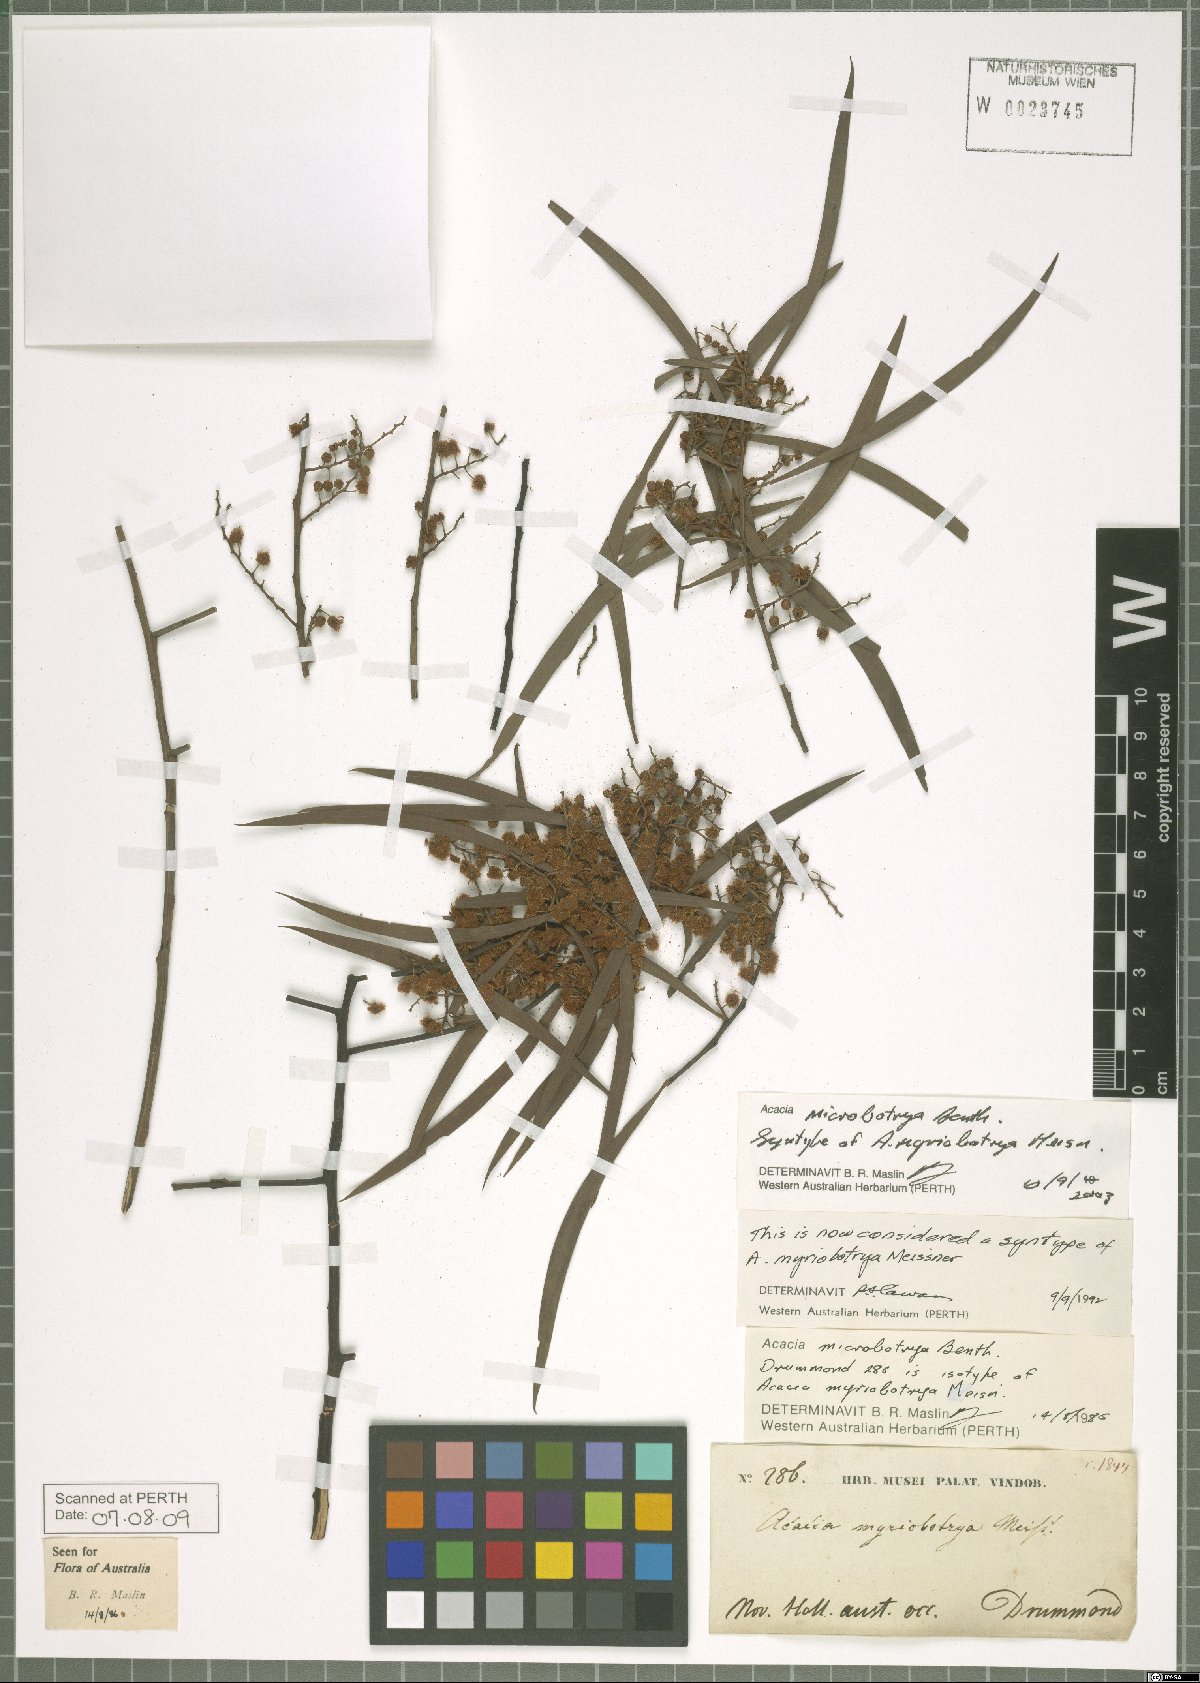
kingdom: Plantae
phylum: Tracheophyta
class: Magnoliopsida
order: Fabales
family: Fabaceae
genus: Acacia
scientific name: Acacia microbotrya
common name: Manna wattle
